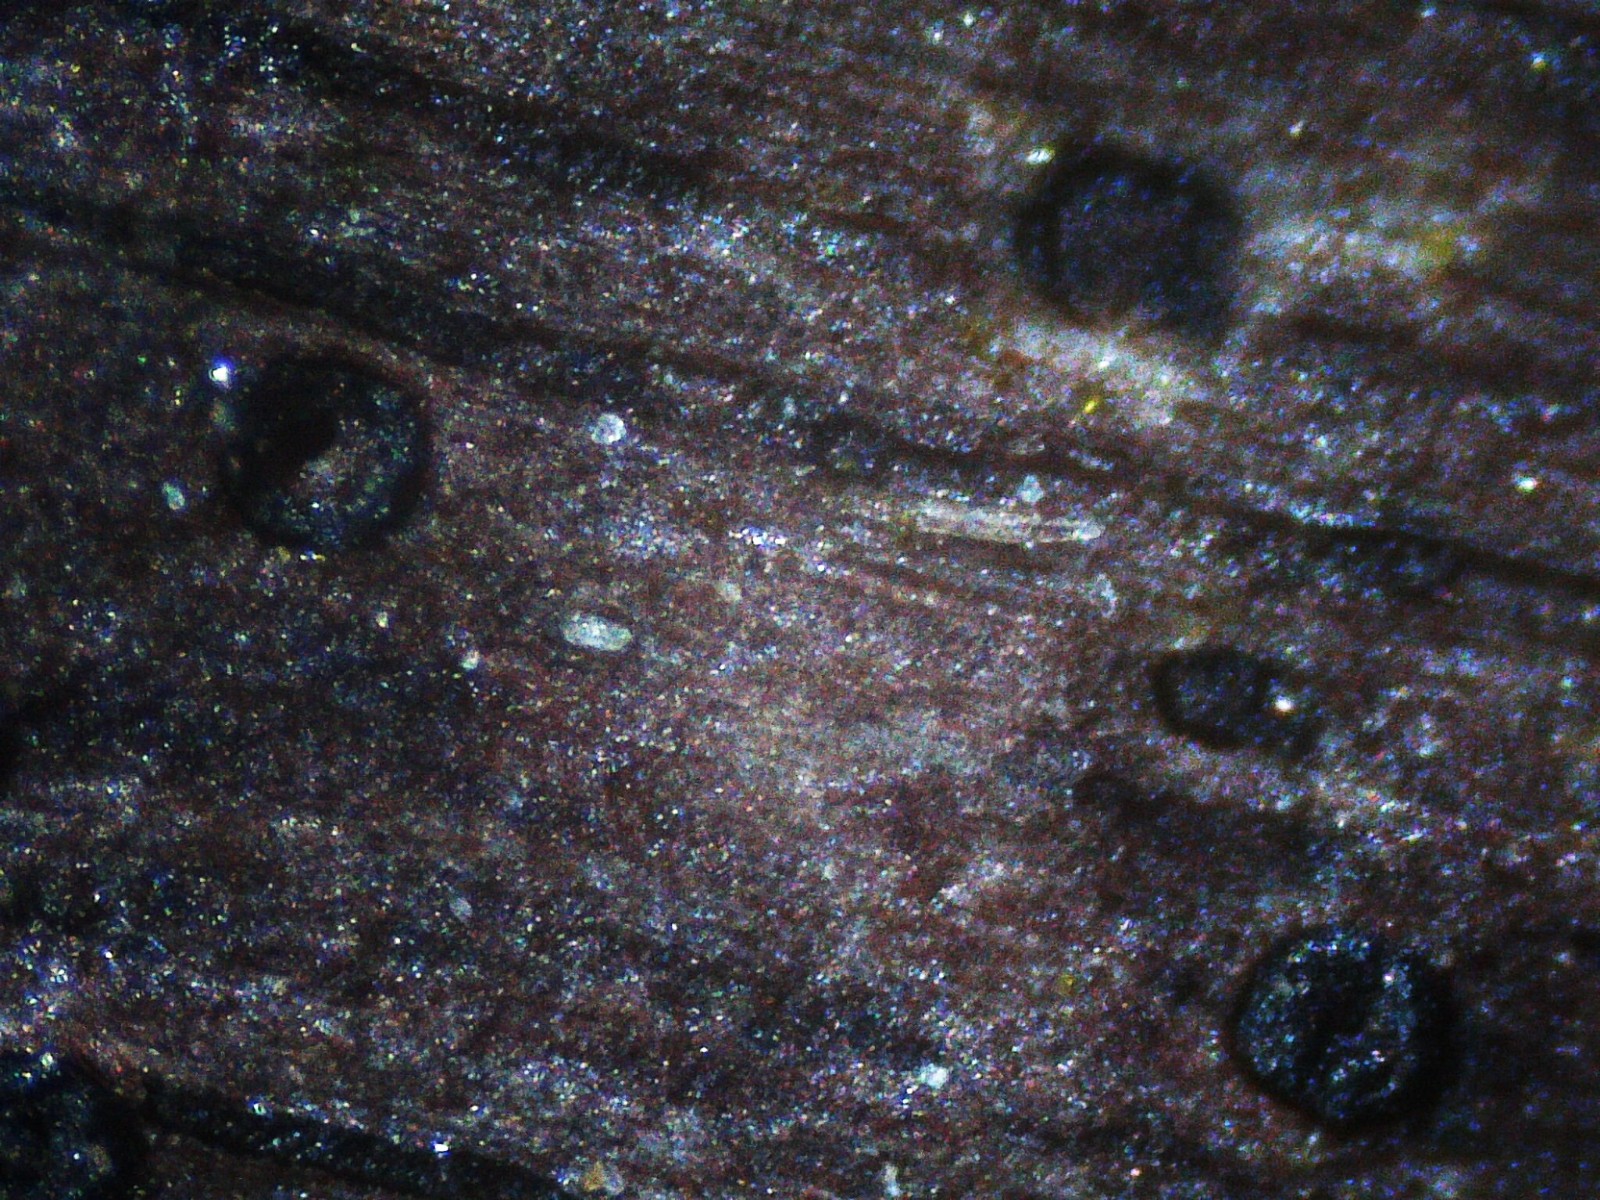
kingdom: Fungi
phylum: Ascomycota
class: Sordariomycetes
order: Xylariales
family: Diatrypaceae
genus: Eutypa
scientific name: Eutypa
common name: kulskorpe
